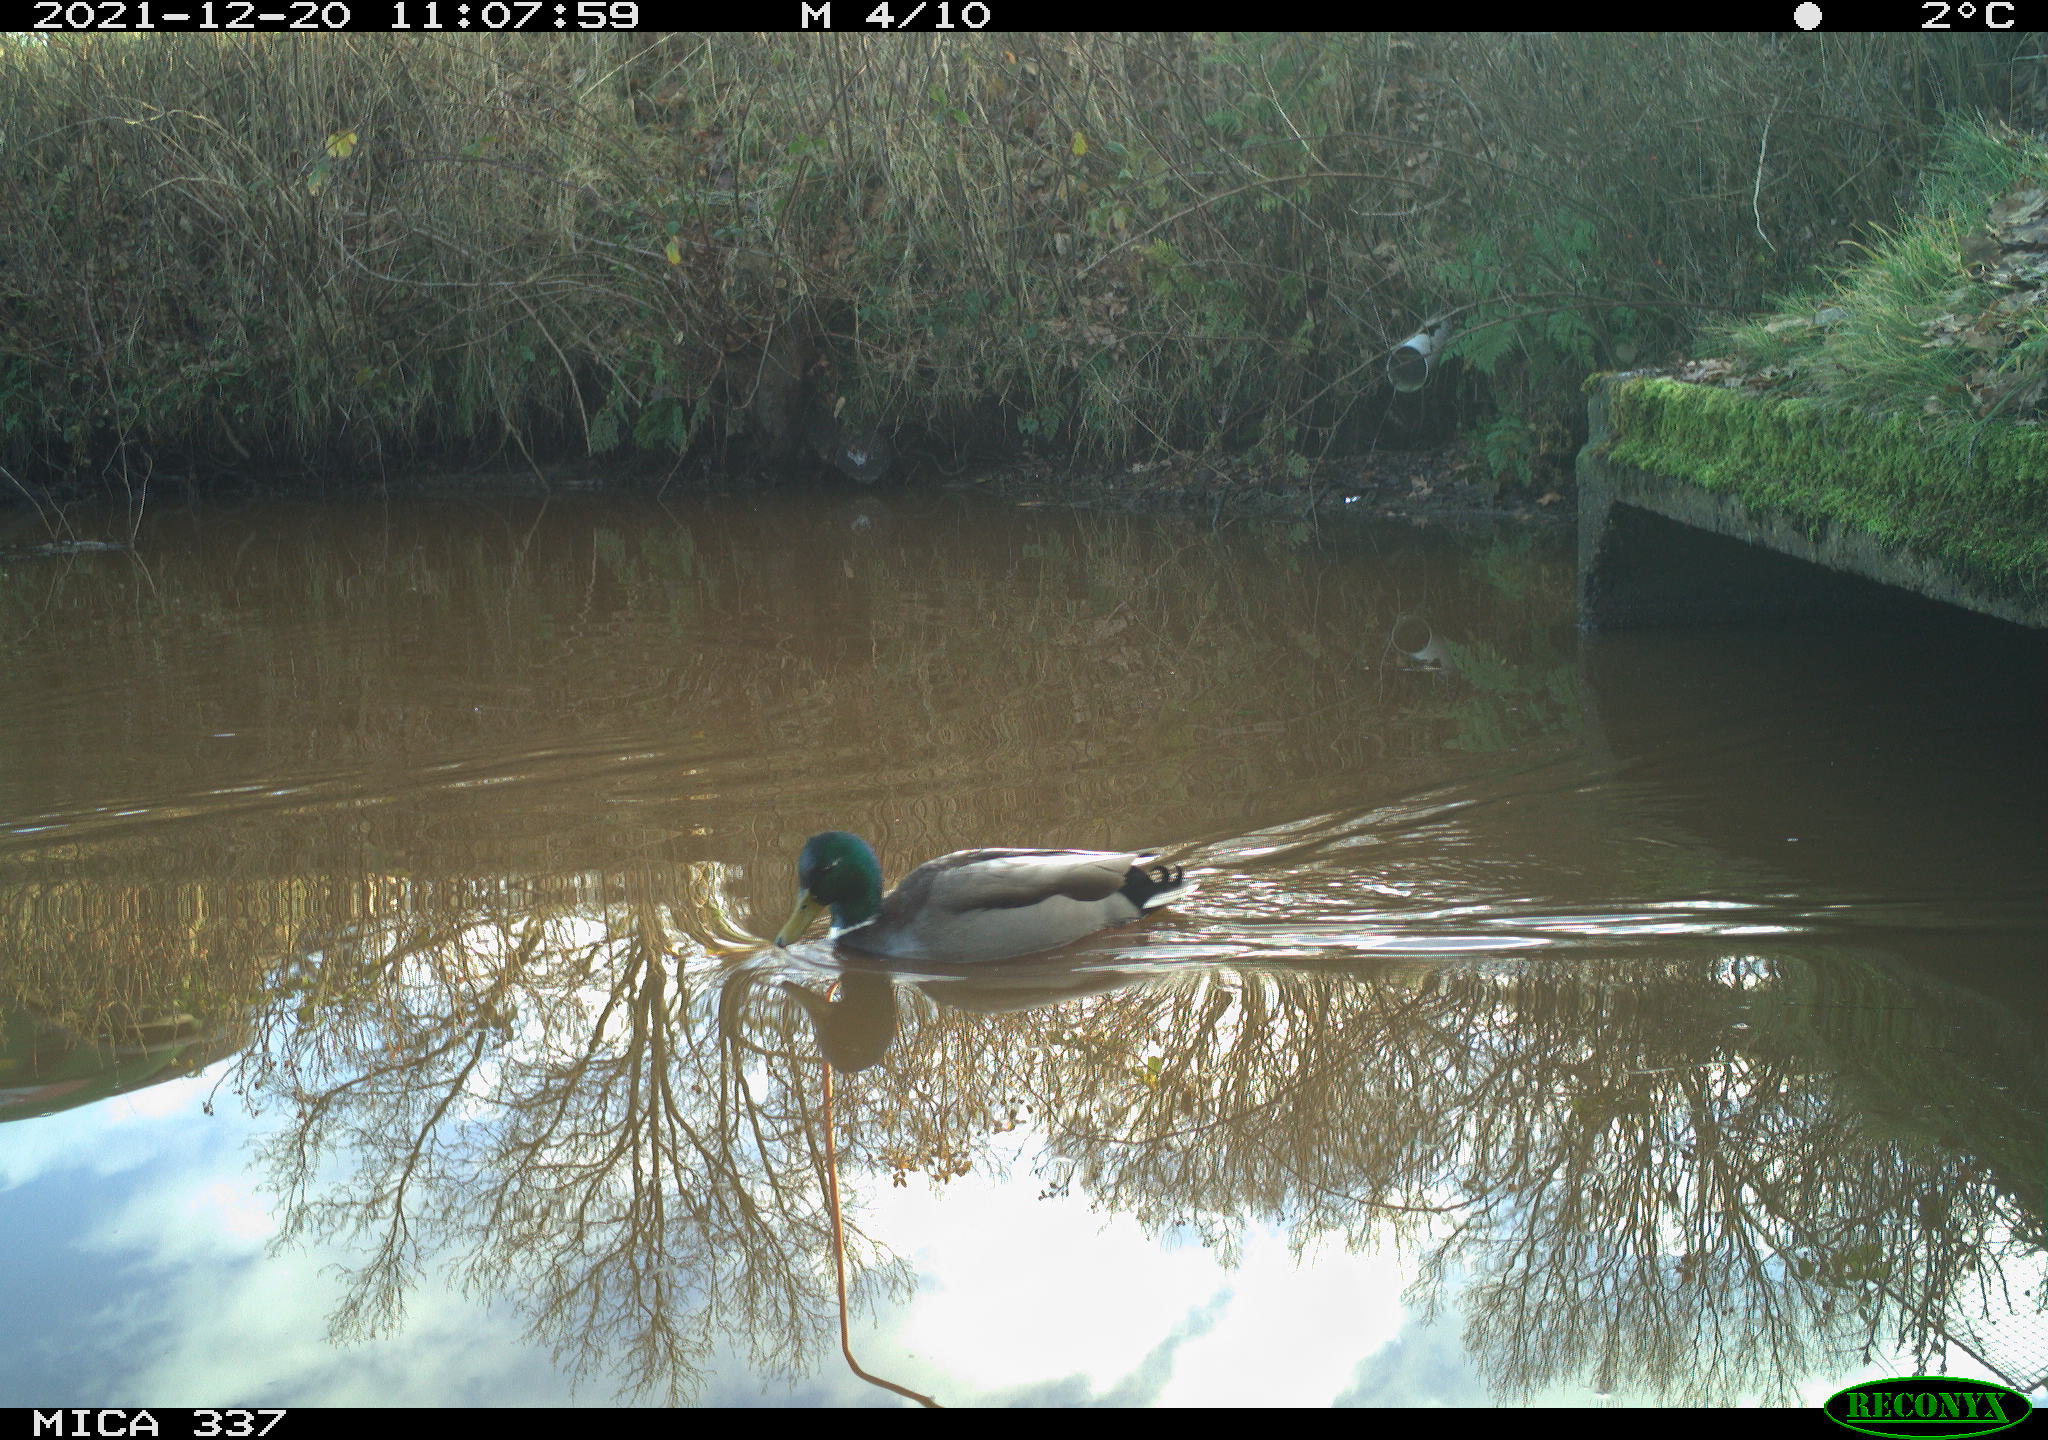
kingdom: Animalia
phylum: Chordata
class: Aves
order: Anseriformes
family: Anatidae
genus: Anas
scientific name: Anas platyrhynchos
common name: Mallard
